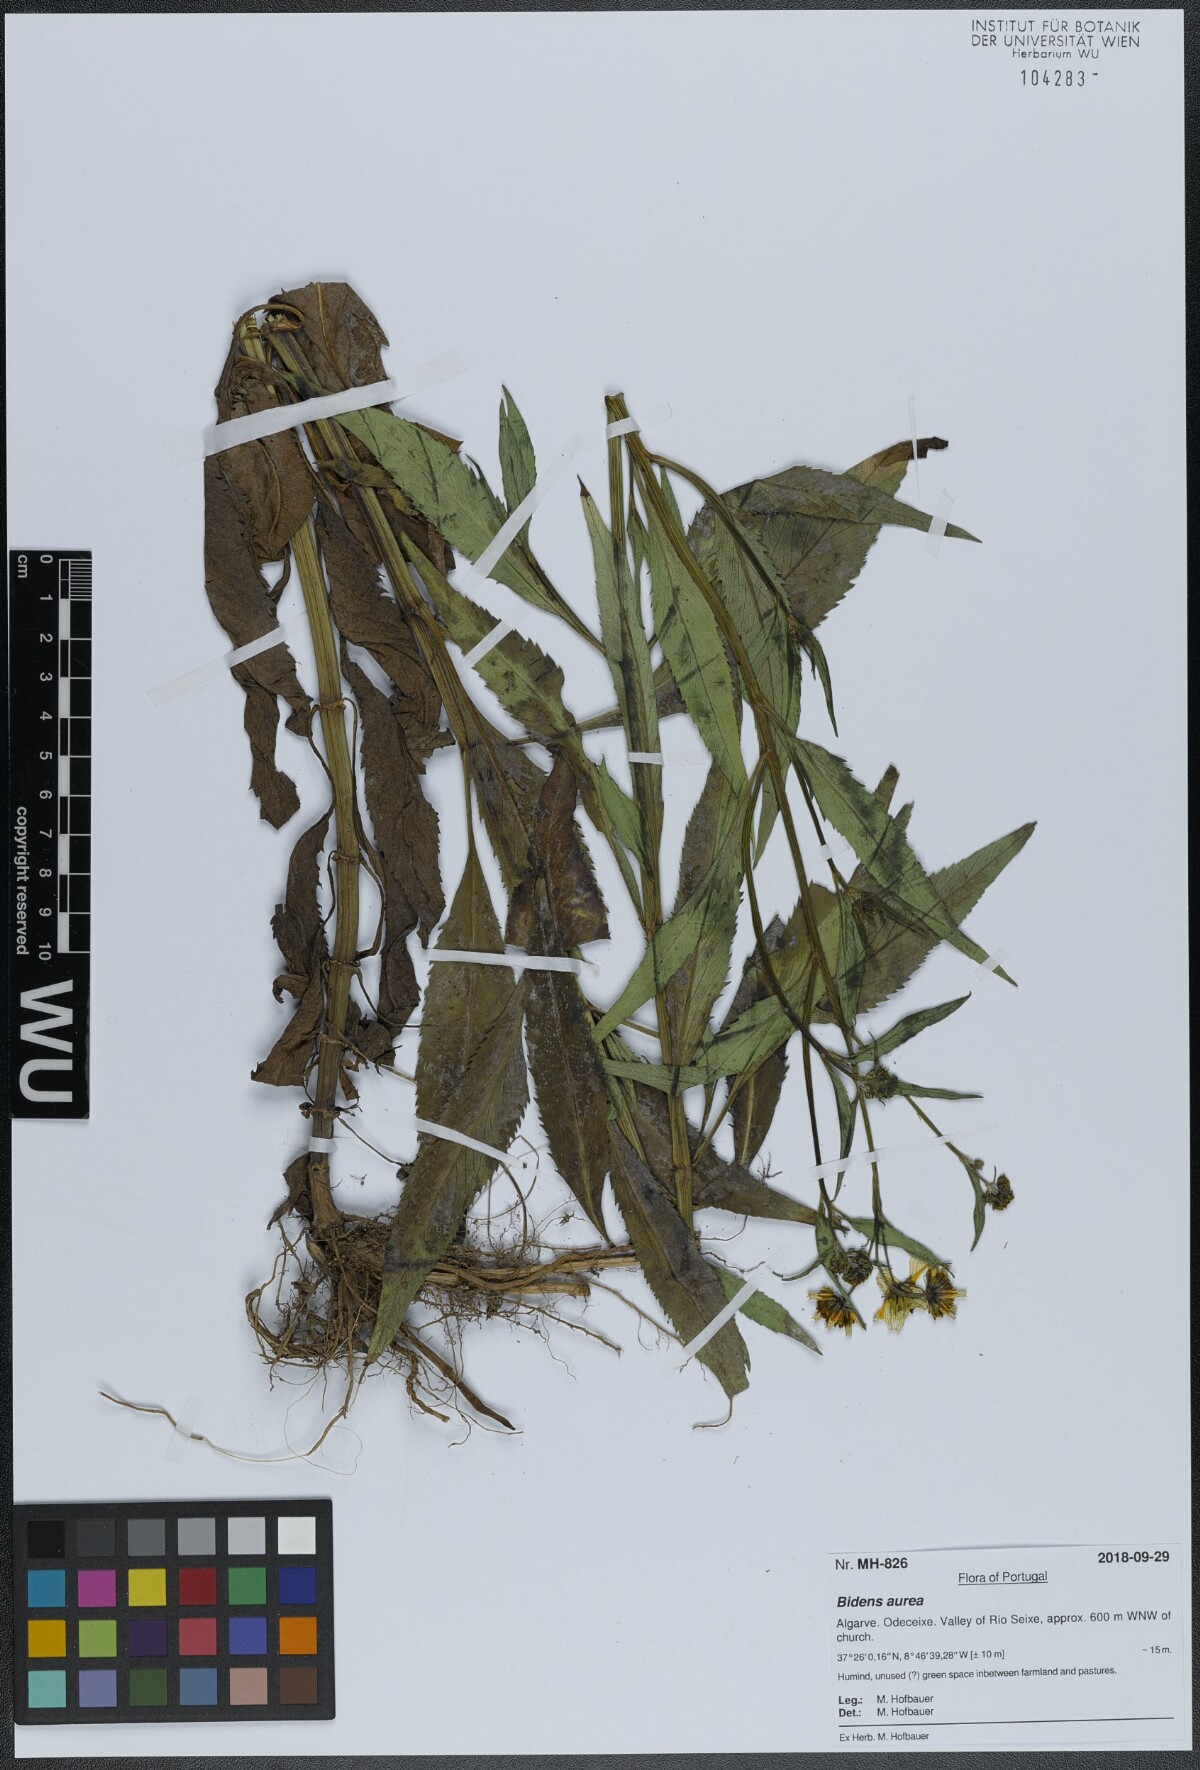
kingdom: Plantae
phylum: Tracheophyta
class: Magnoliopsida
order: Asterales
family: Asteraceae
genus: Bidens
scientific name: Bidens aurea
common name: Arizona beggar-ticks
